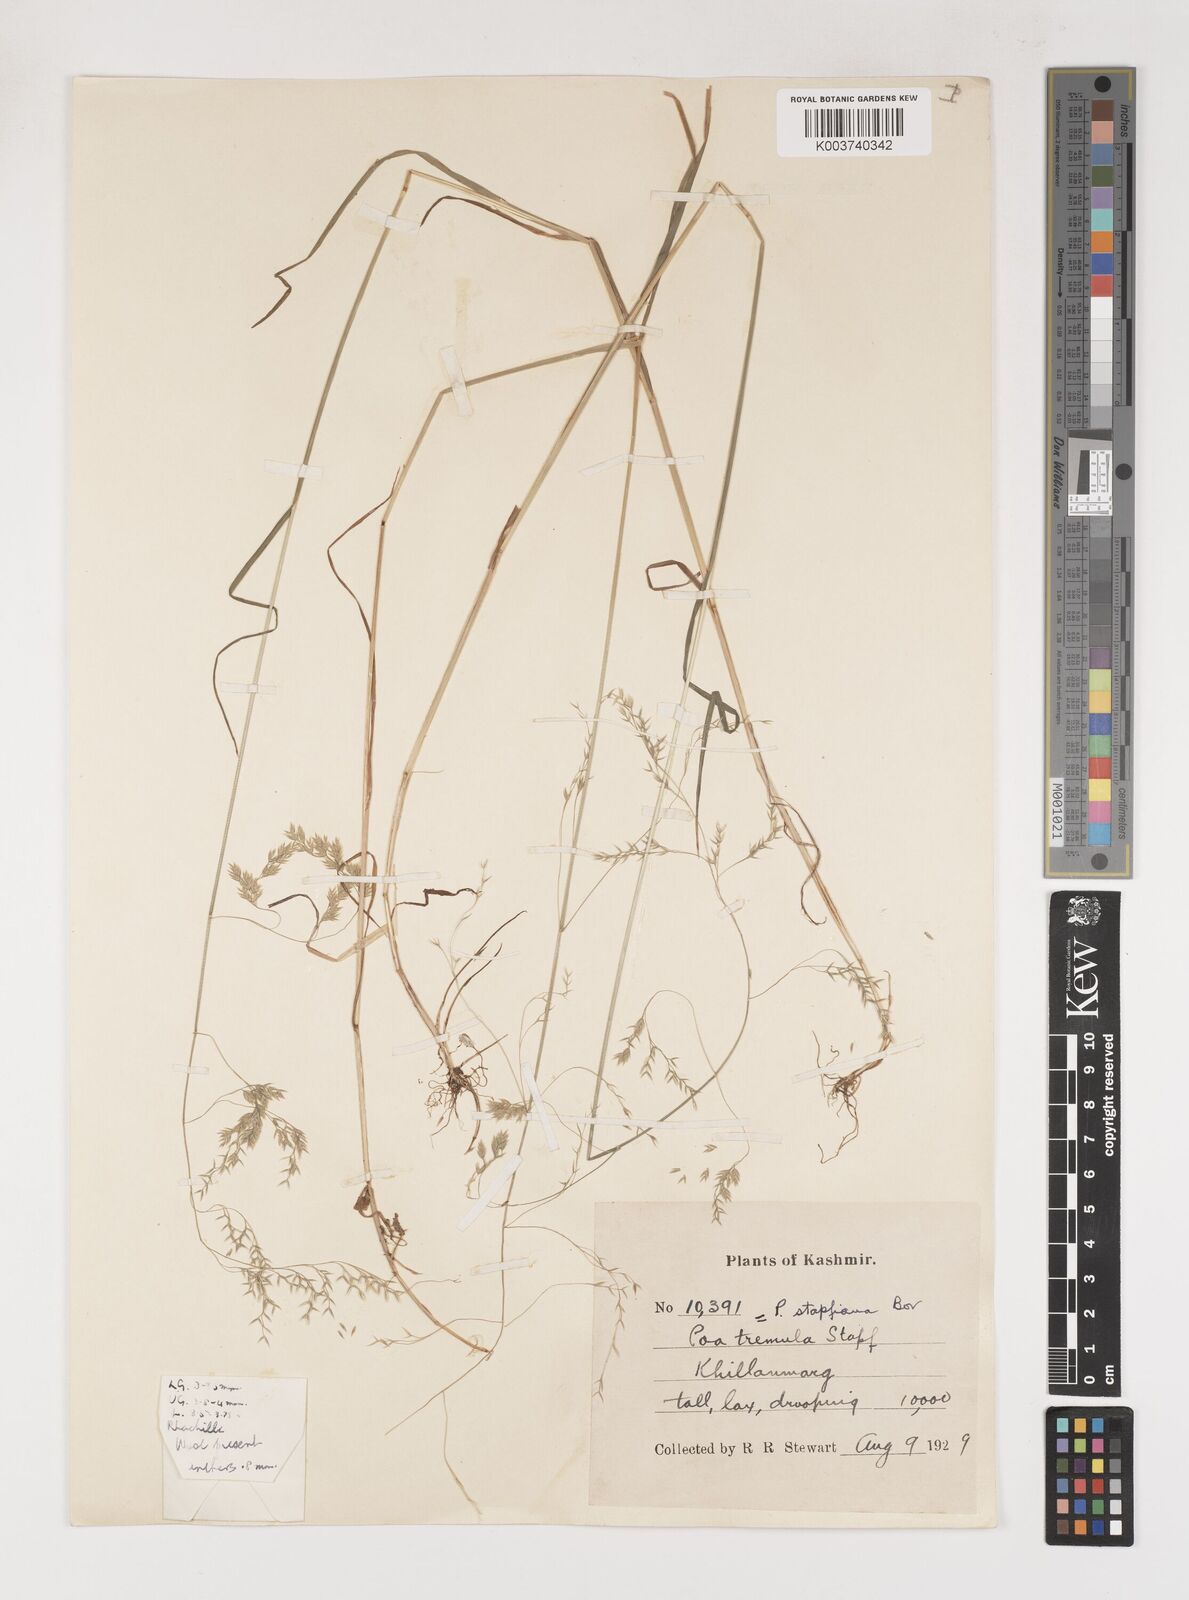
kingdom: Plantae
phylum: Tracheophyta
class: Liliopsida
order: Poales
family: Poaceae
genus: Poa
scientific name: Poa stapfiana
